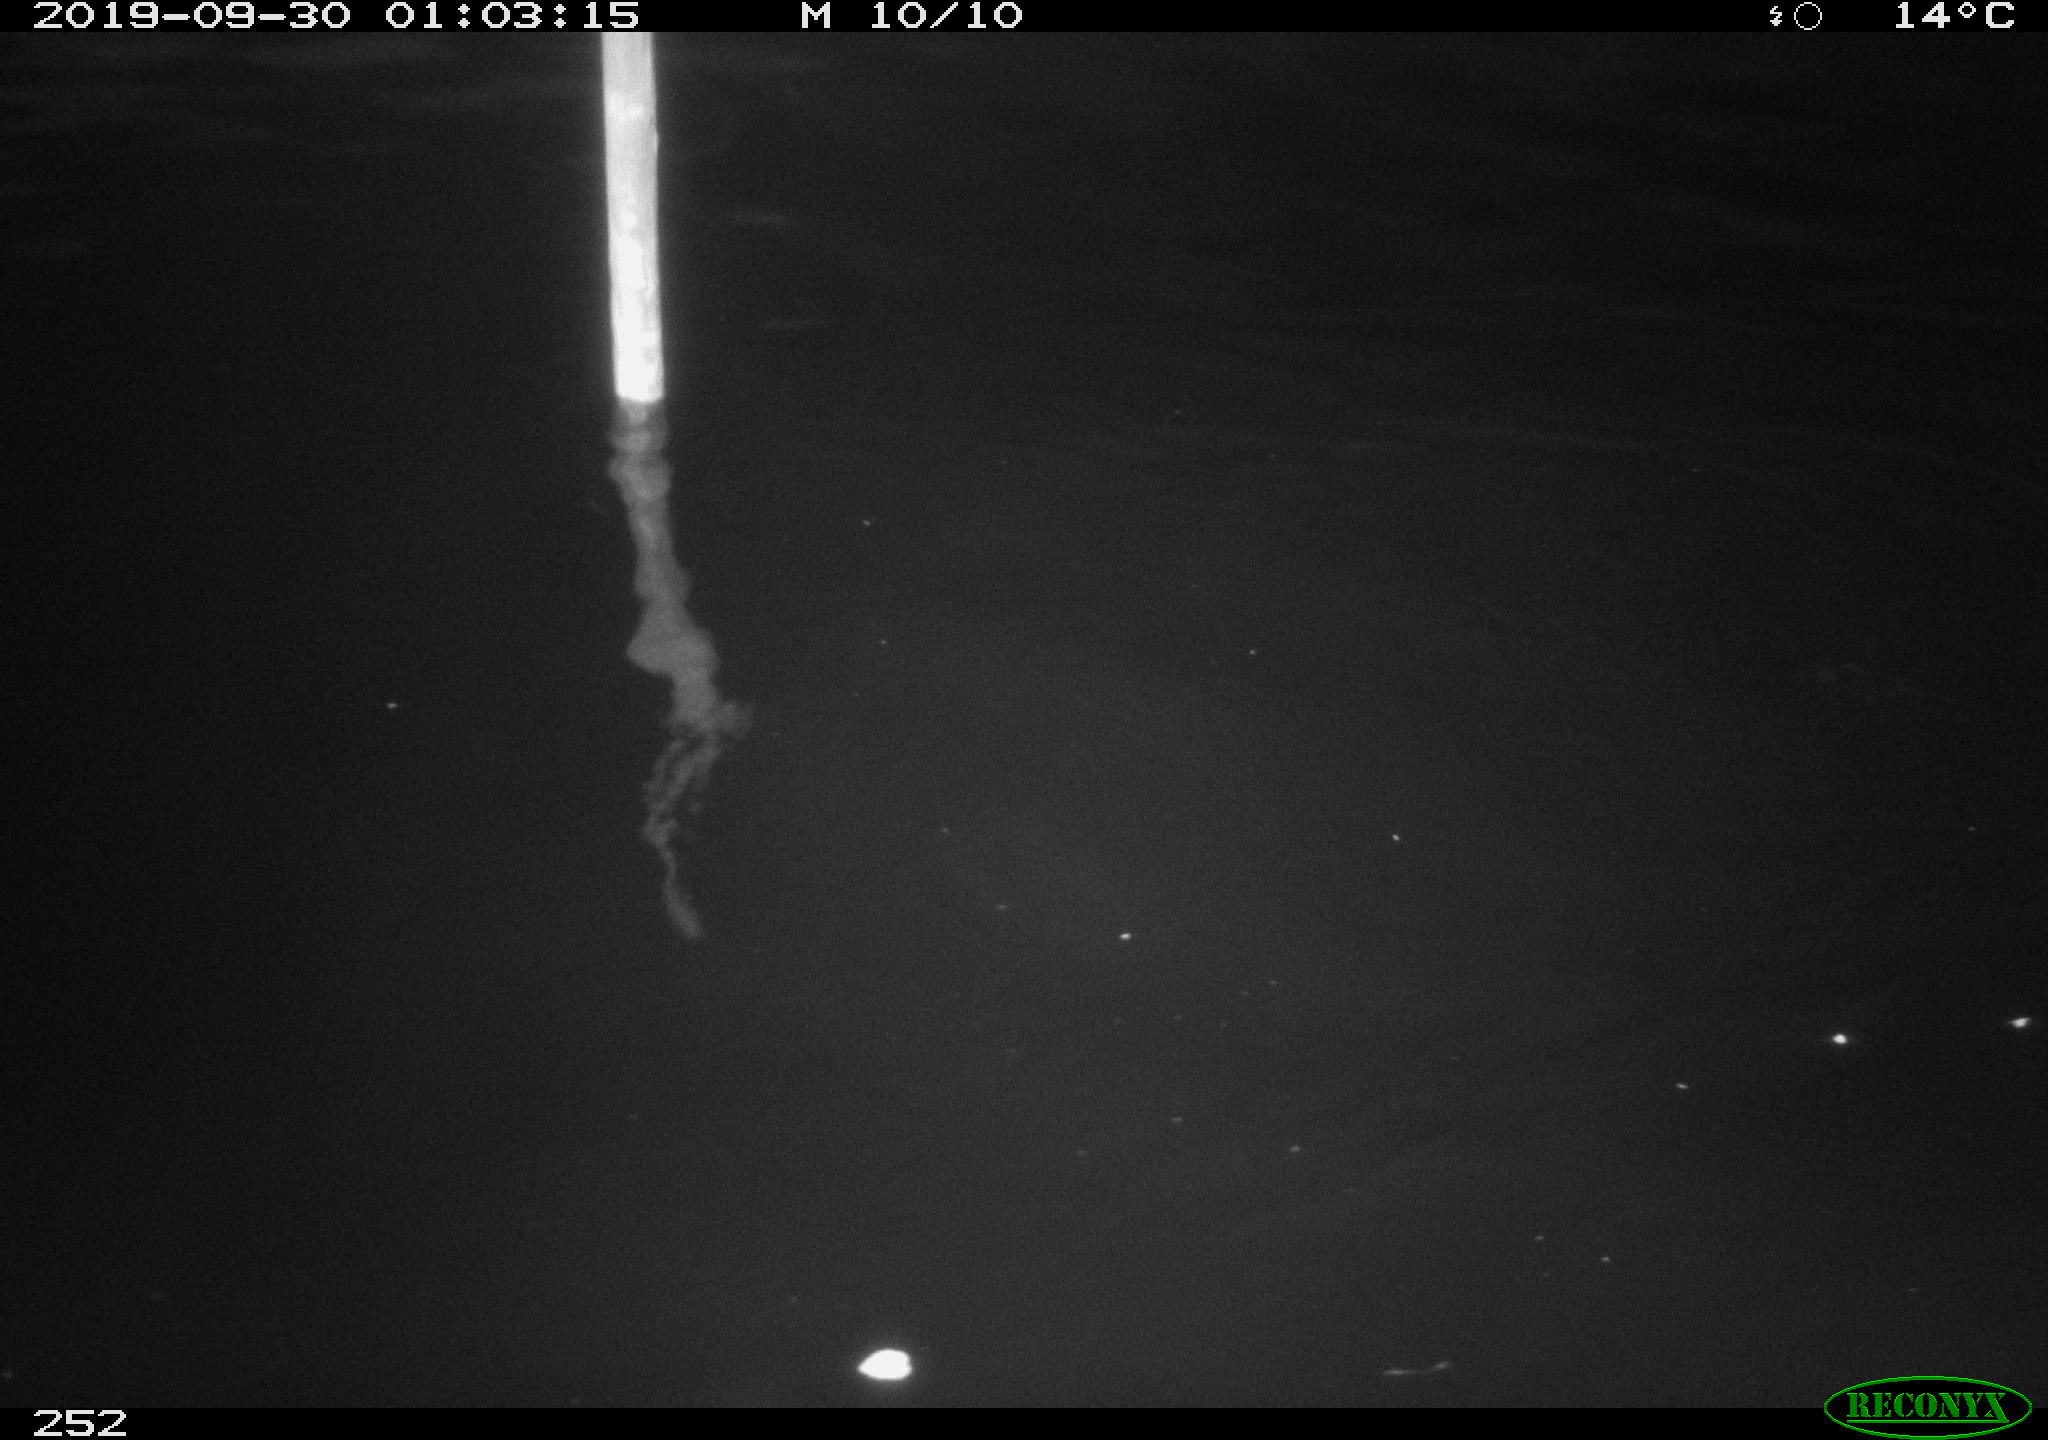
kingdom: Animalia
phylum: Chordata
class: Aves
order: Anseriformes
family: Anatidae
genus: Anas
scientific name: Anas platyrhynchos
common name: Mallard
